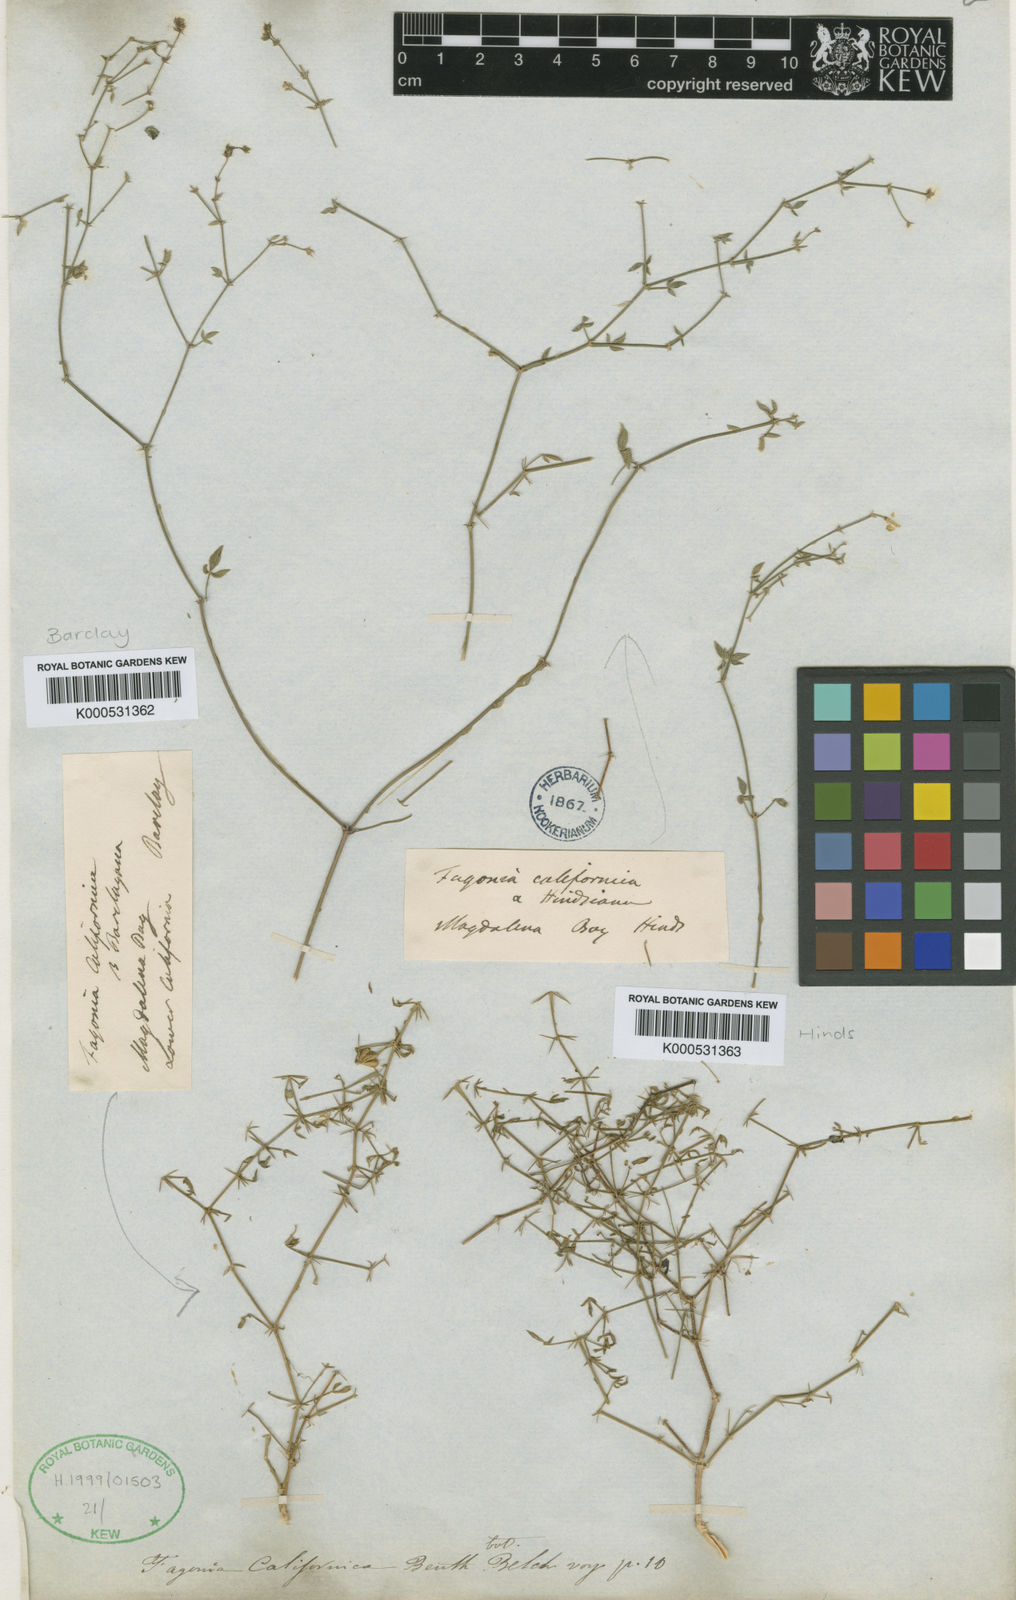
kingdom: Plantae
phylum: Tracheophyta
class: Magnoliopsida
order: Zygophyllales
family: Zygophyllaceae
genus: Fagonia
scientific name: Fagonia laevis
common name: California fagonbush
